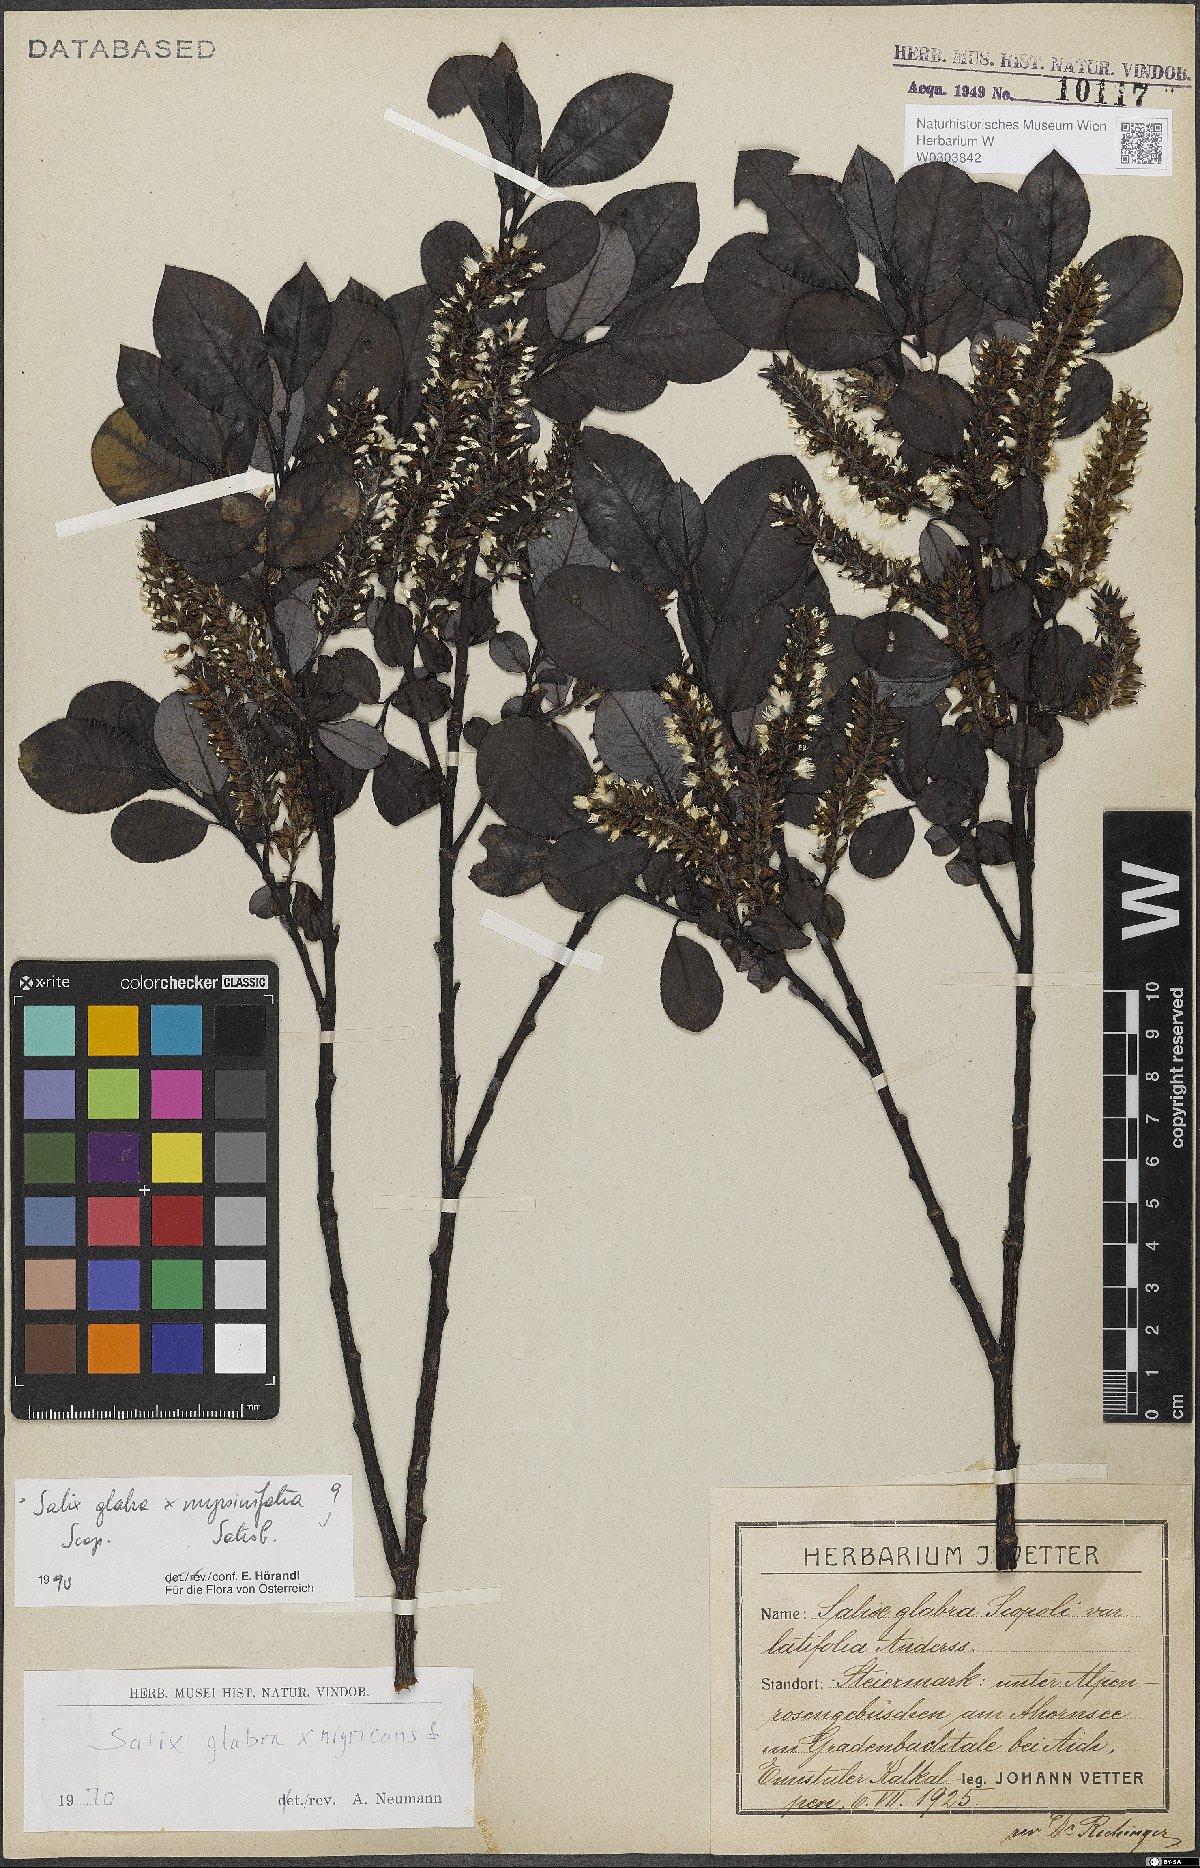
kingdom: Plantae
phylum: Tracheophyta
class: Magnoliopsida
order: Malpighiales
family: Salicaceae
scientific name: Salicaceae
